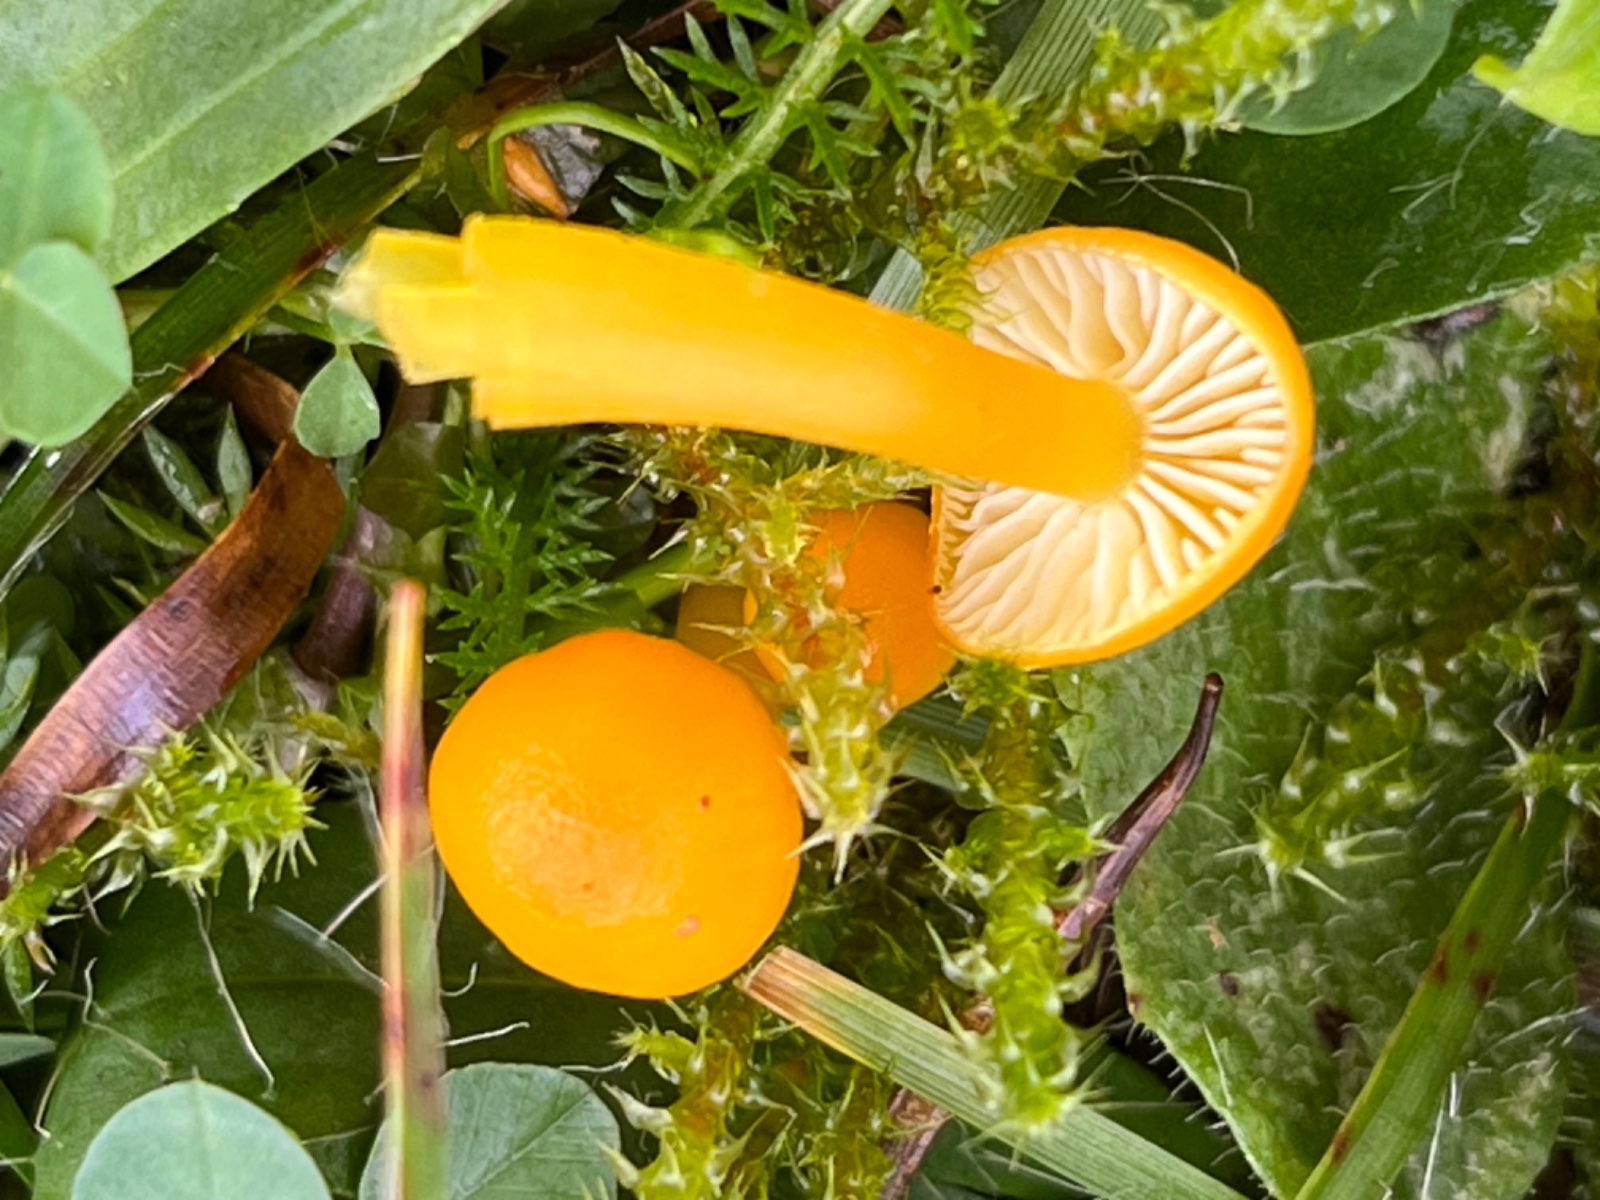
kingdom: Fungi
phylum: Basidiomycota
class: Agaricomycetes
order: Agaricales
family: Hygrophoraceae
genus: Hygrocybe
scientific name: Hygrocybe ceracea
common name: voksgul vokshat
